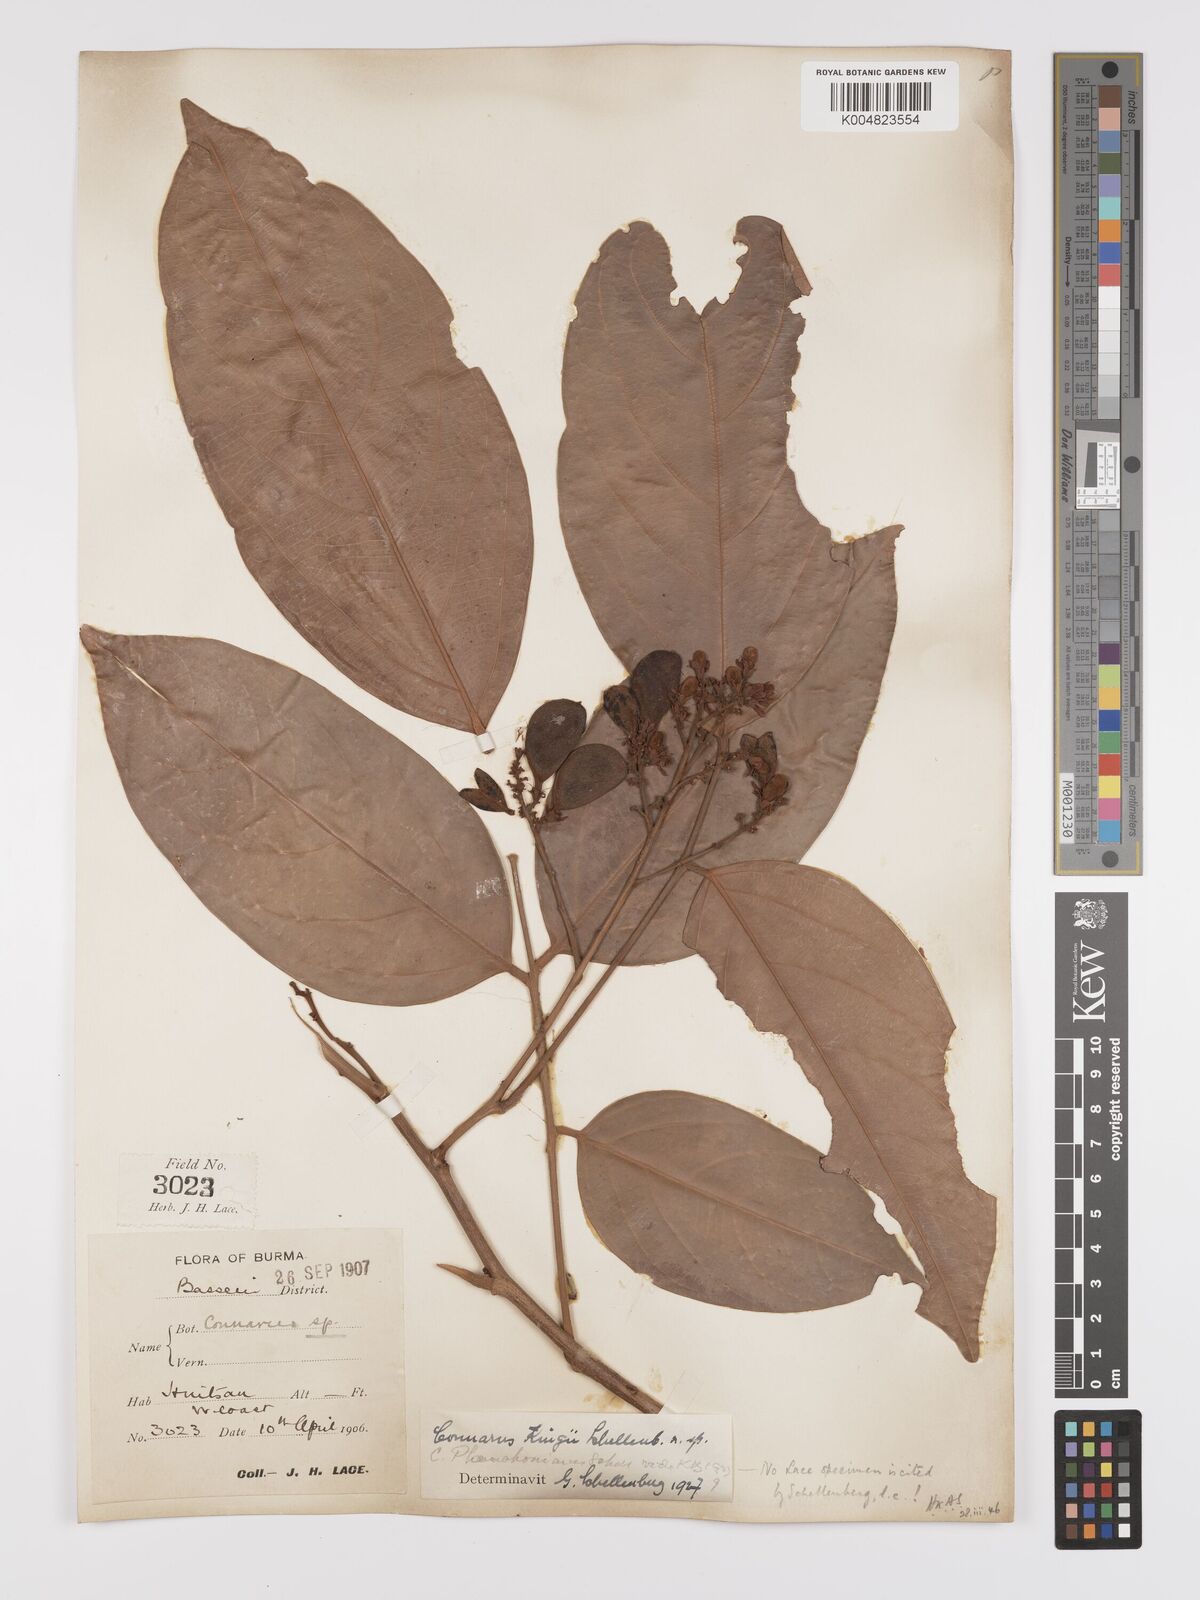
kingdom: Plantae
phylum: Tracheophyta
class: Magnoliopsida
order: Oxalidales
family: Connaraceae
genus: Connarus
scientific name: Connarus kingii
